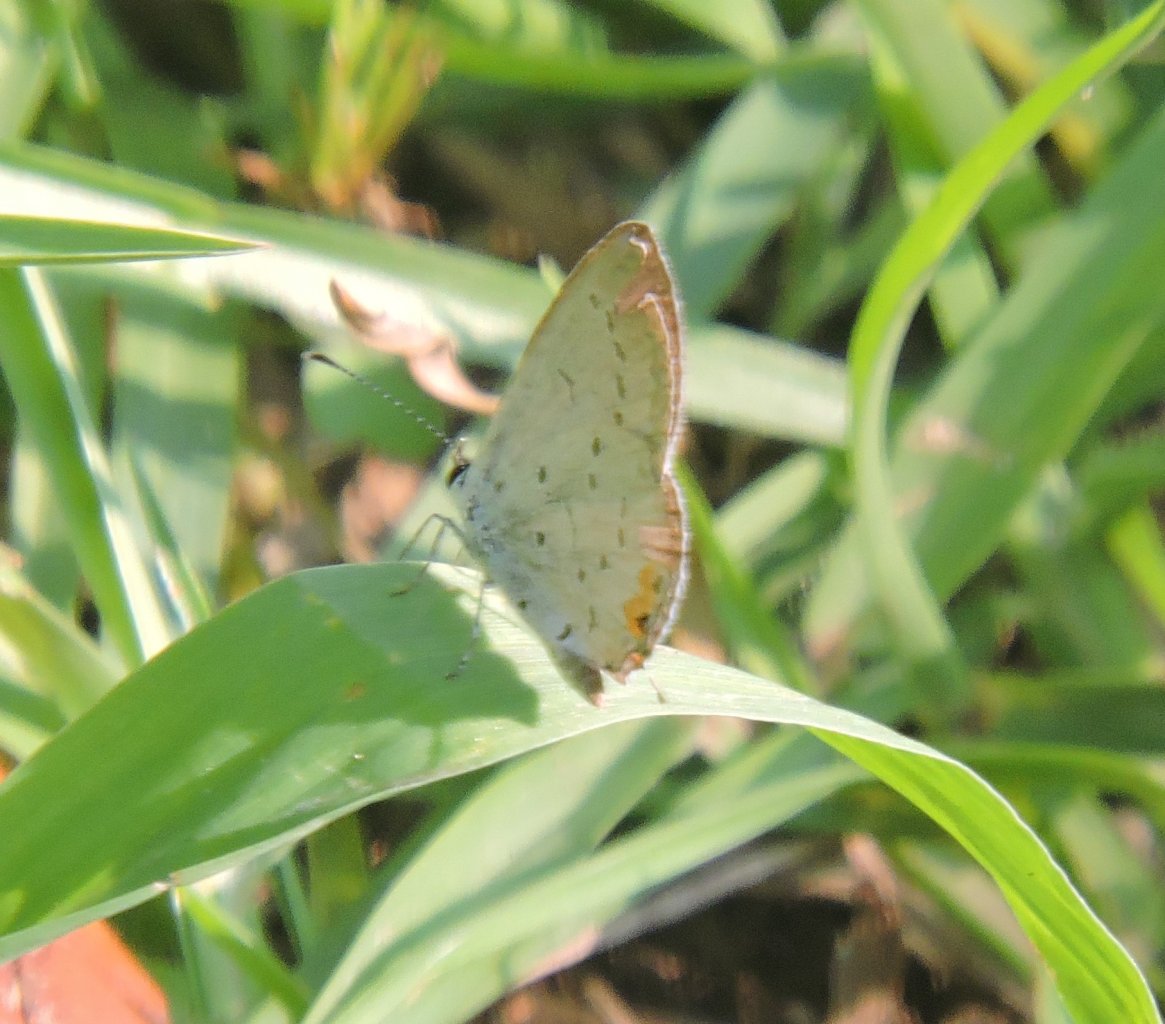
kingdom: Animalia
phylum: Arthropoda
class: Insecta
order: Lepidoptera
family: Lycaenidae
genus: Elkalyce
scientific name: Elkalyce comyntas
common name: Eastern Tailed-Blue
